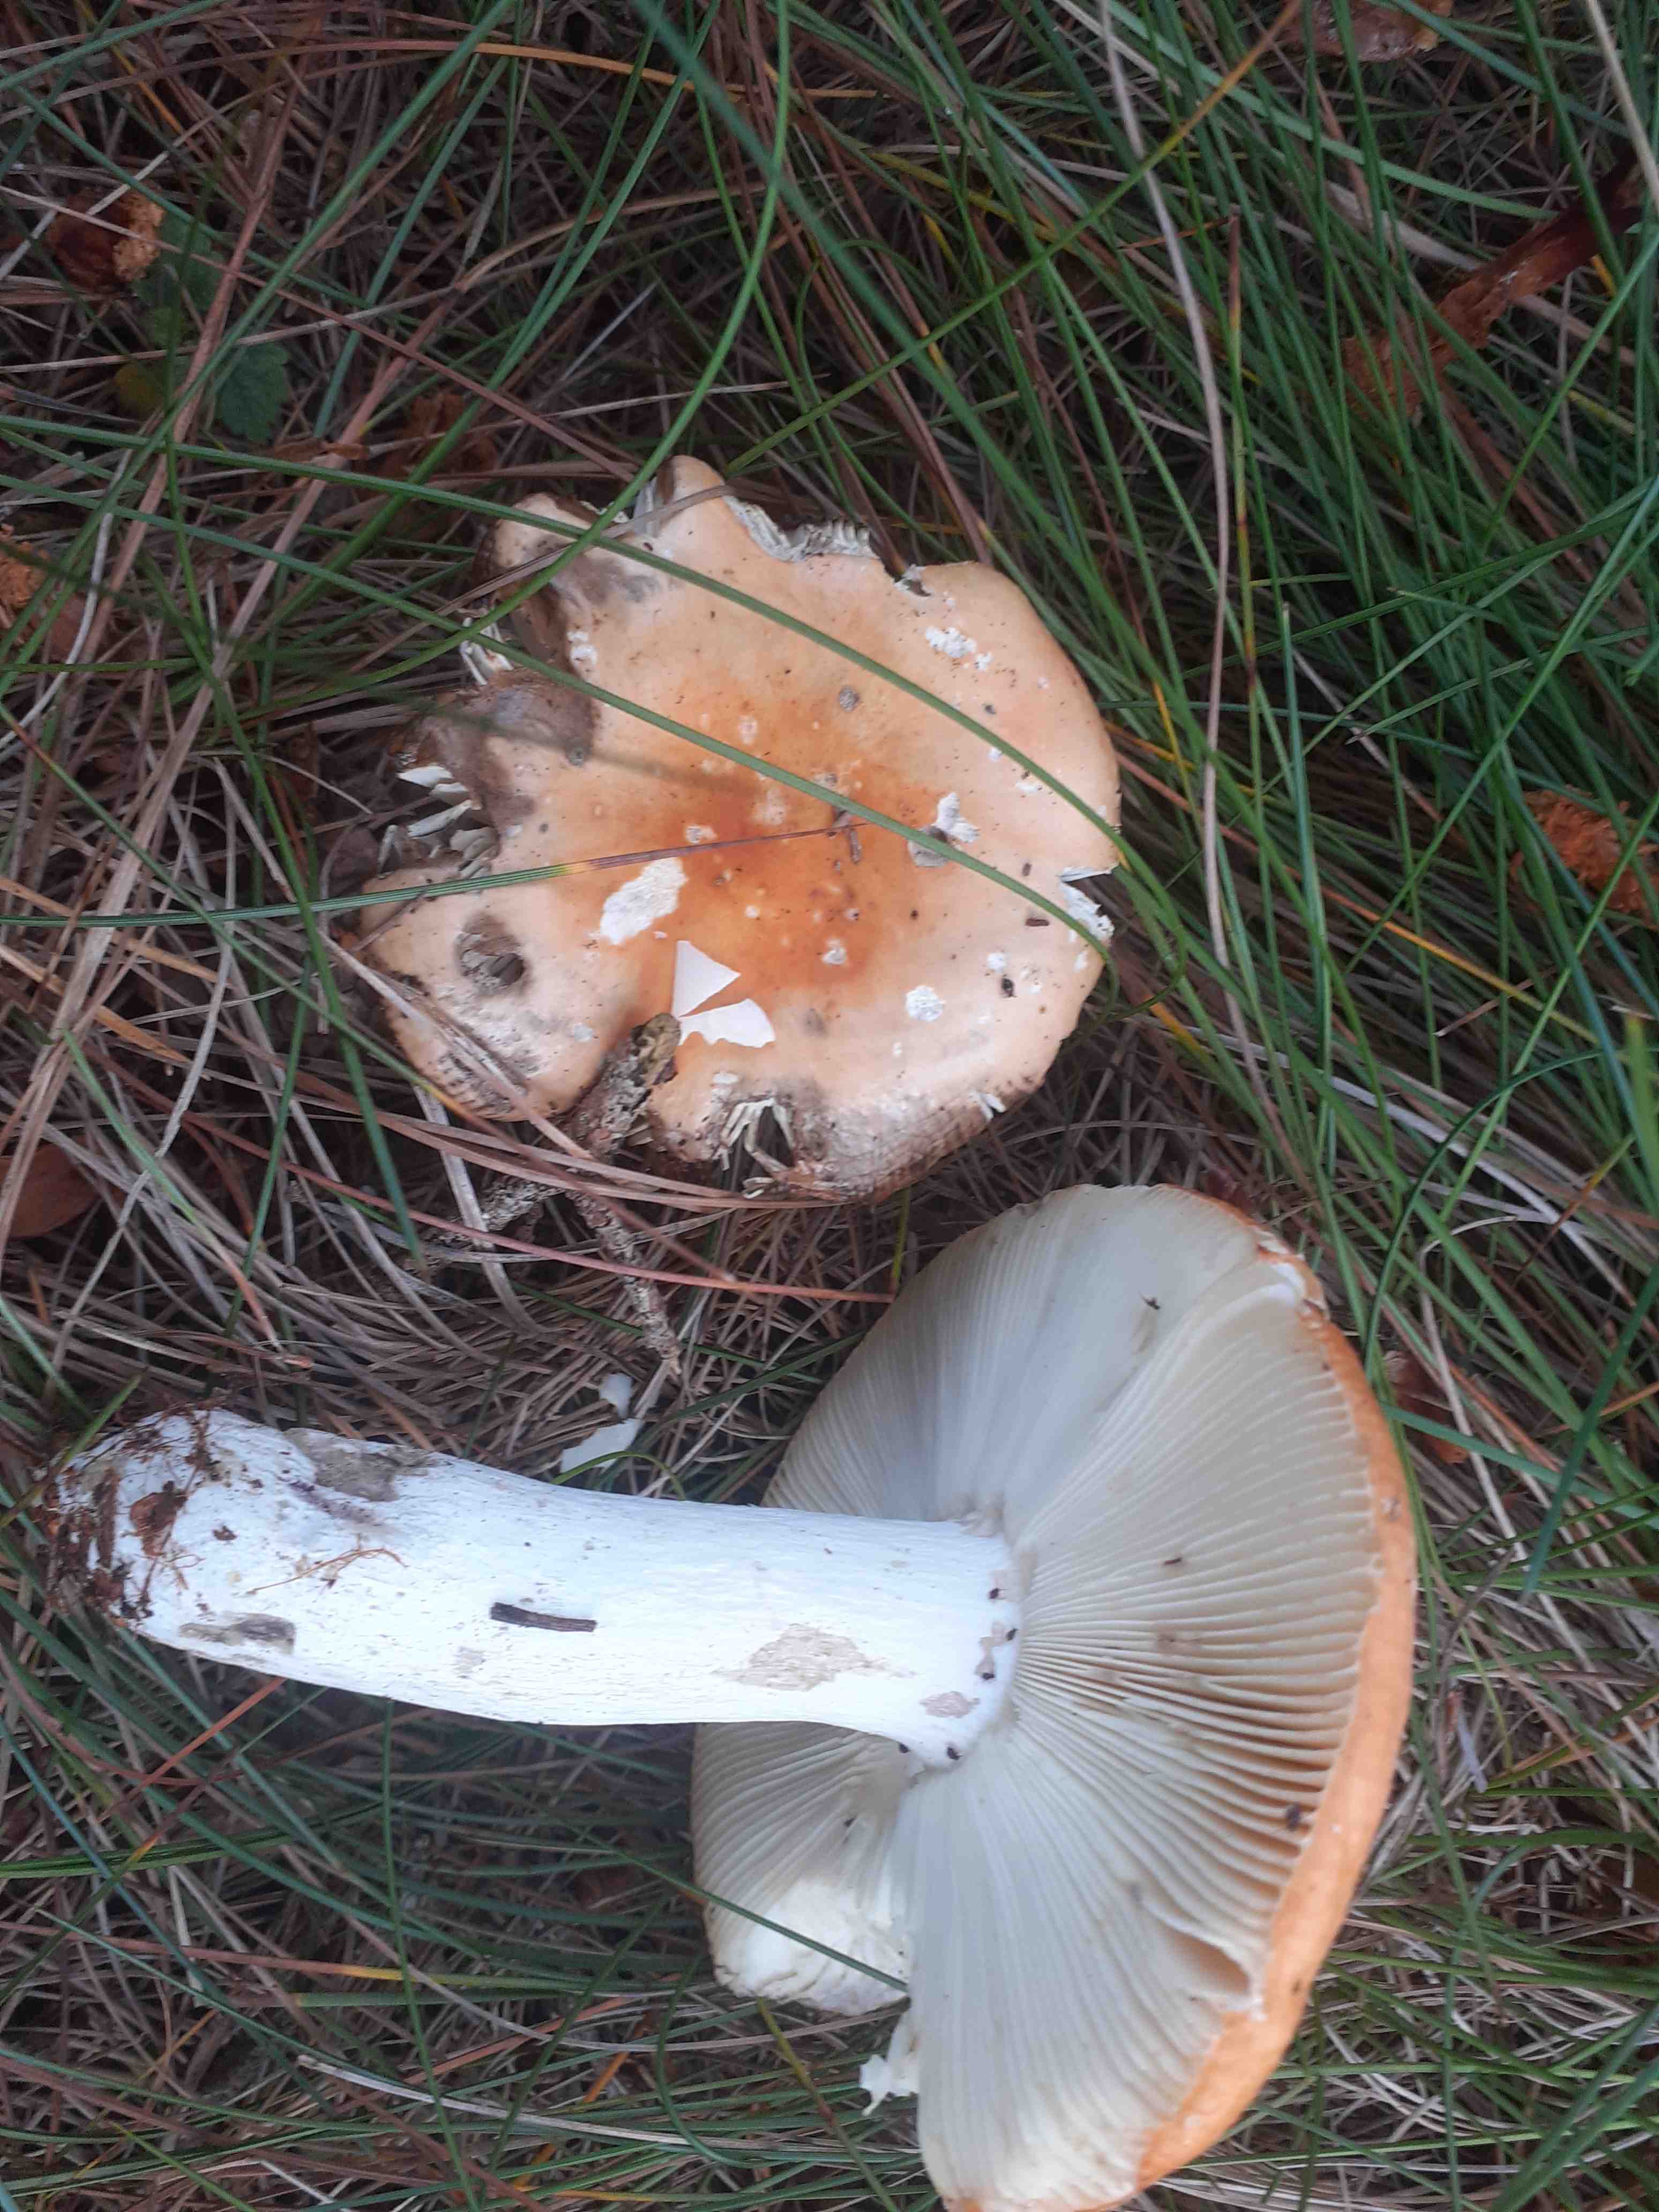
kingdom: Fungi
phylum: Basidiomycota
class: Agaricomycetes
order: Russulales
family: Russulaceae
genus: Russula
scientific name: Russula decolorans
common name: afblegende skørhat
